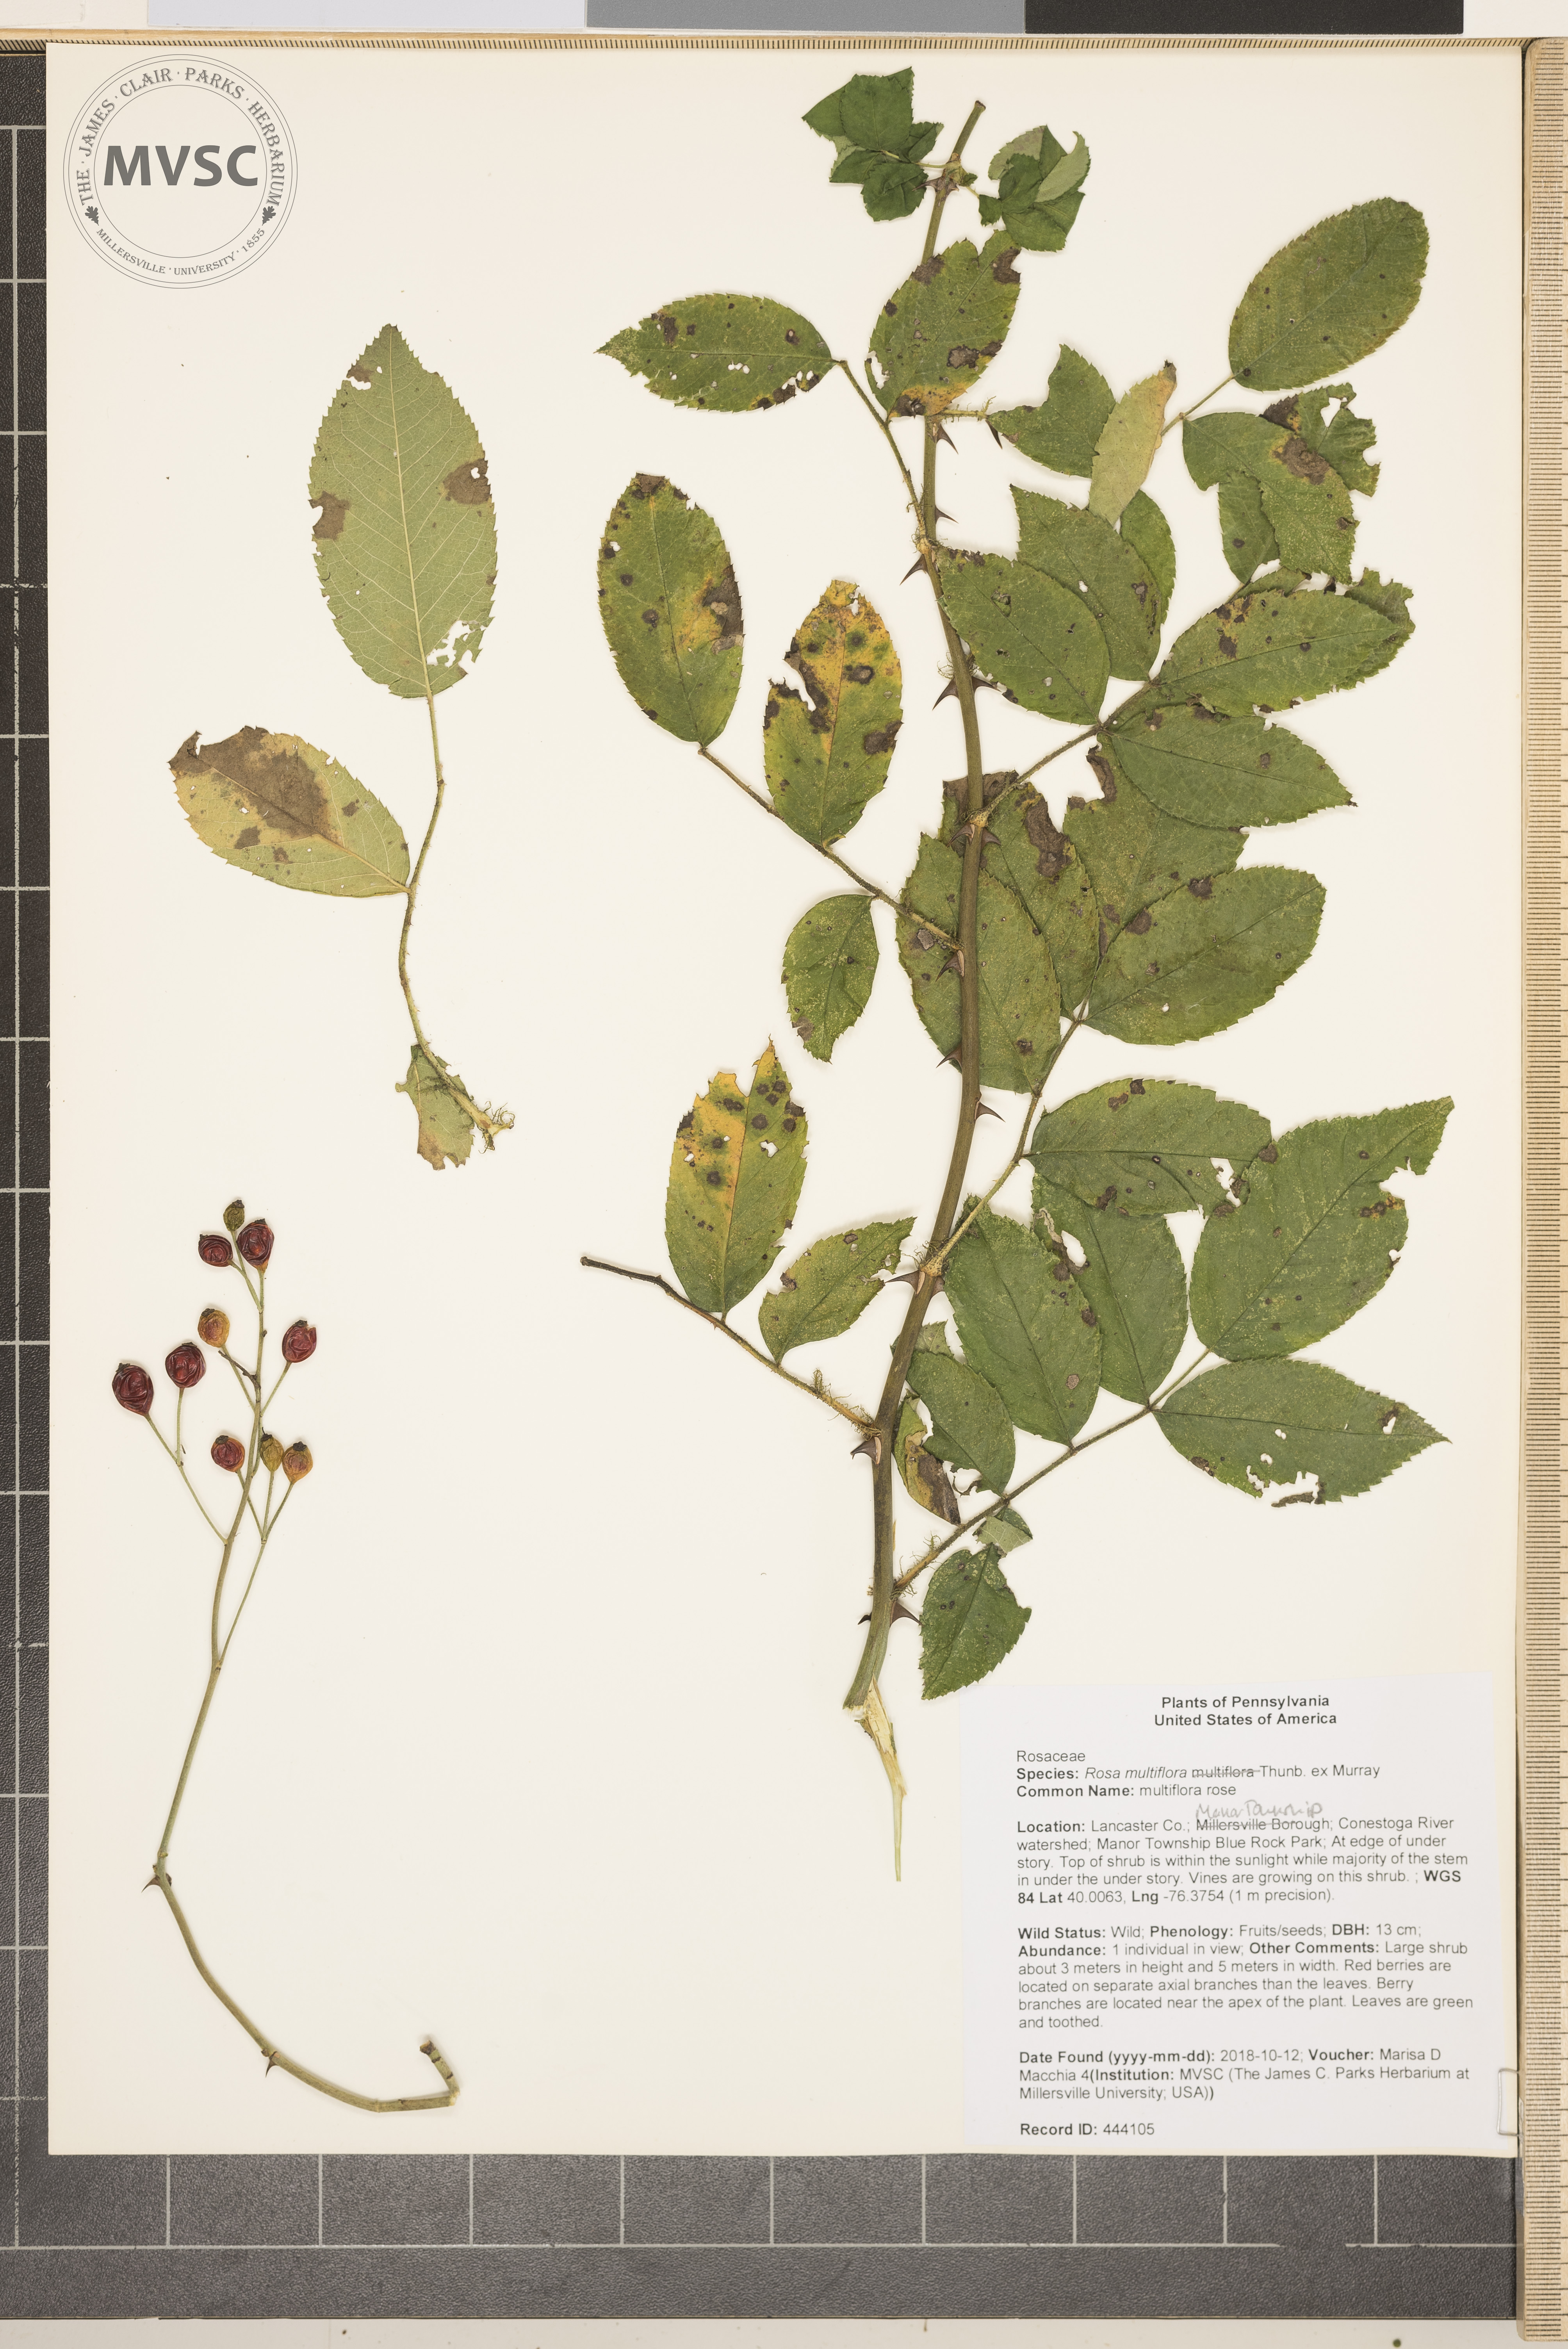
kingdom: Plantae
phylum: Tracheophyta
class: Magnoliopsida
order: Rosales
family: Rosaceae
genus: Rosa
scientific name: Rosa multiflora
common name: multiflora rose
